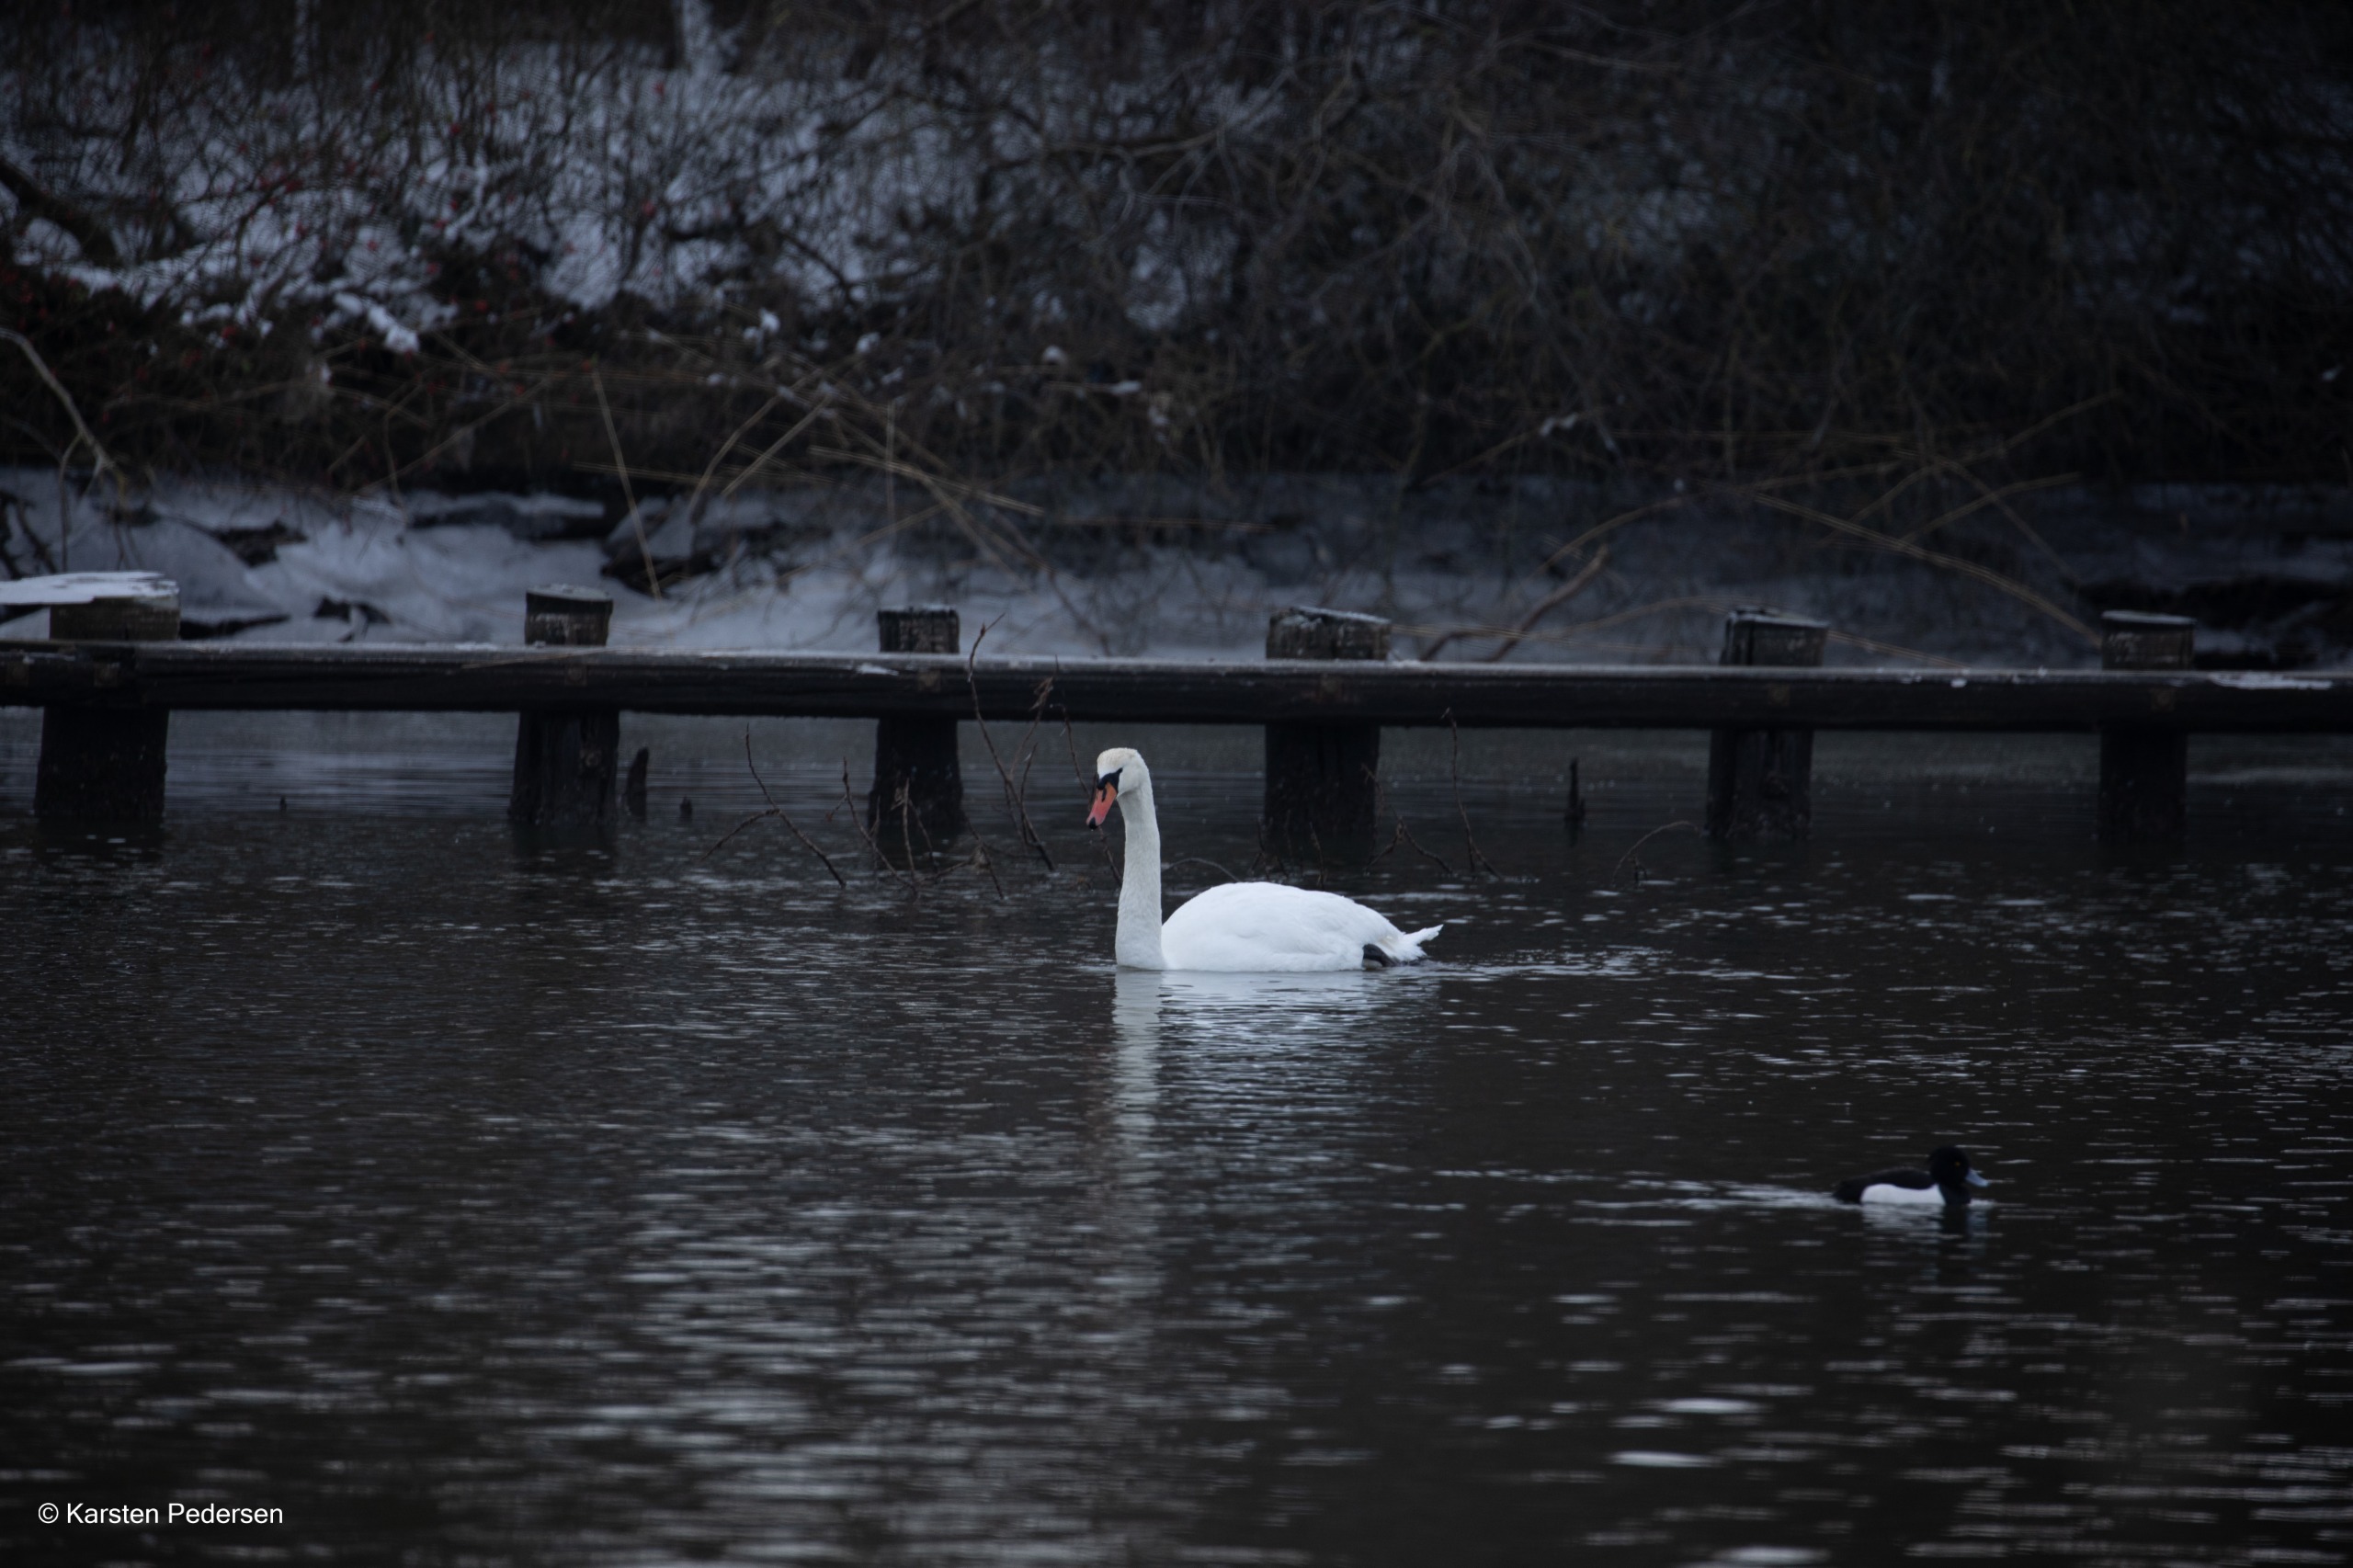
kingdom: Animalia
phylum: Chordata
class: Aves
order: Anseriformes
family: Anatidae
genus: Cygnus
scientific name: Cygnus olor
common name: Knopsvane
